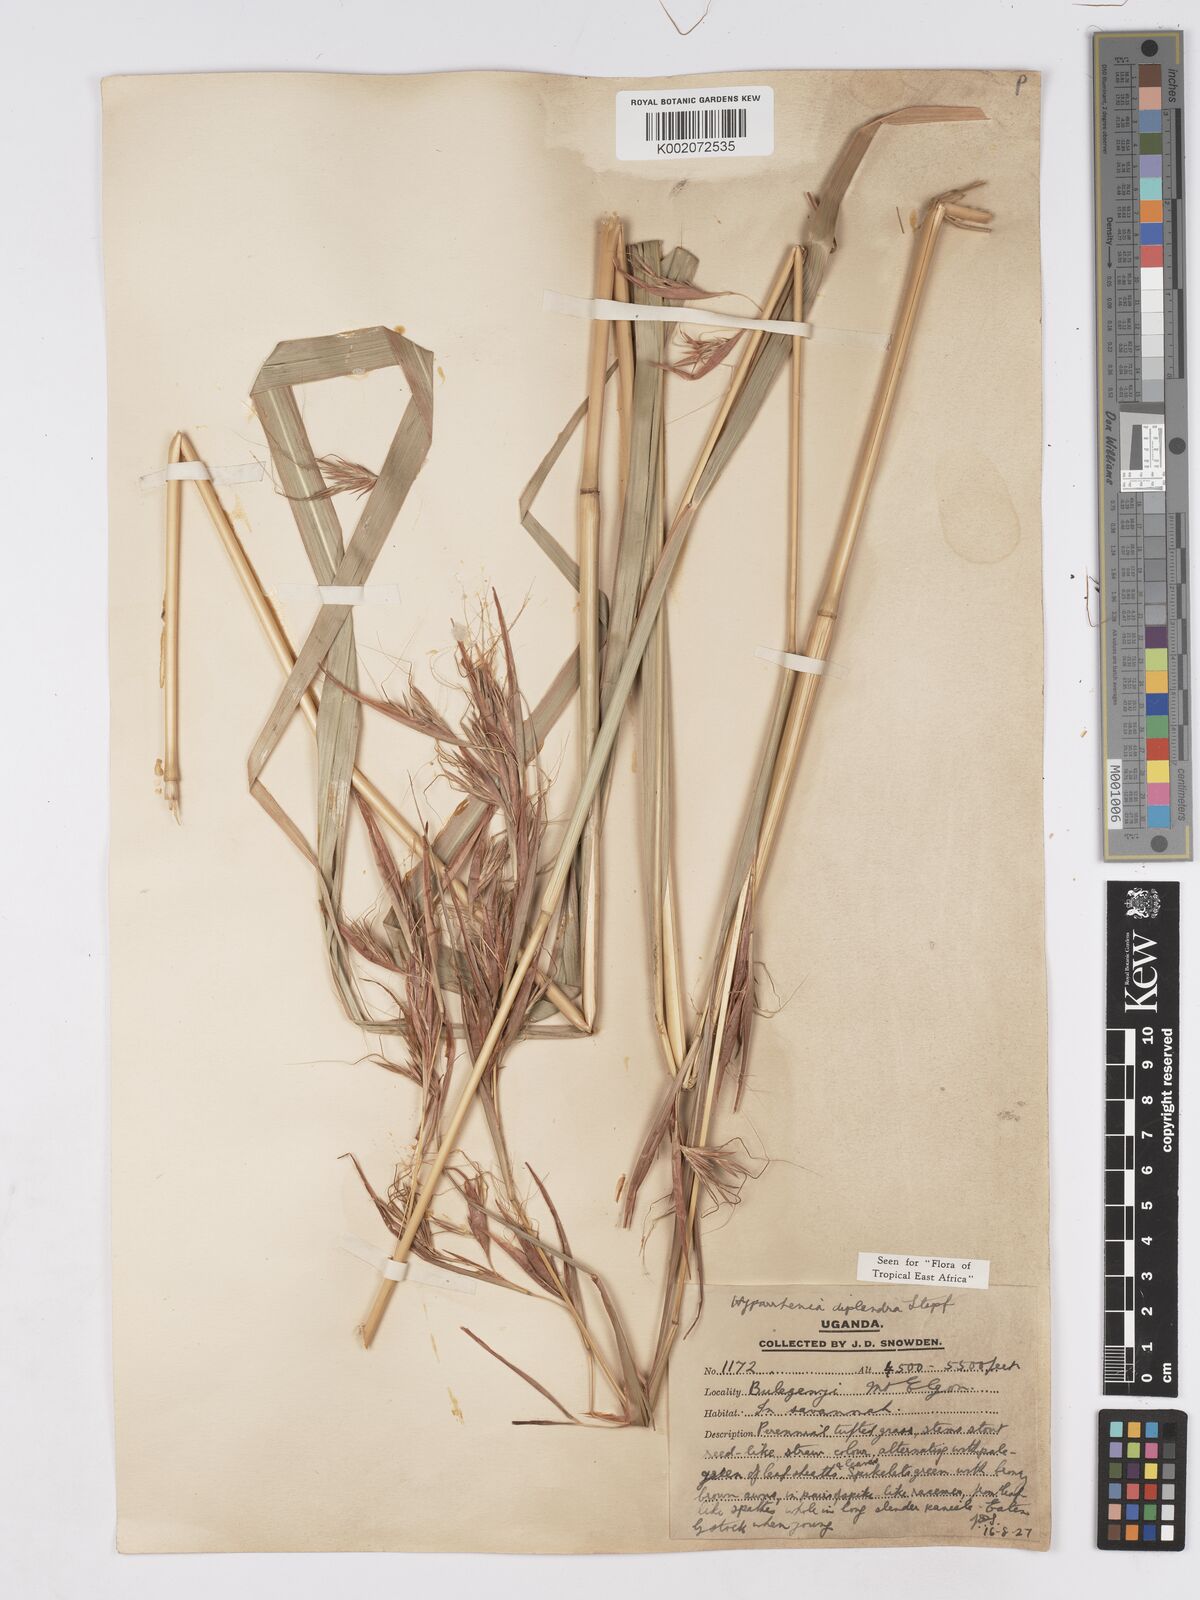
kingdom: Plantae
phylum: Tracheophyta
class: Liliopsida
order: Poales
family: Poaceae
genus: Hyparrhenia
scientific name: Hyparrhenia diplandra
